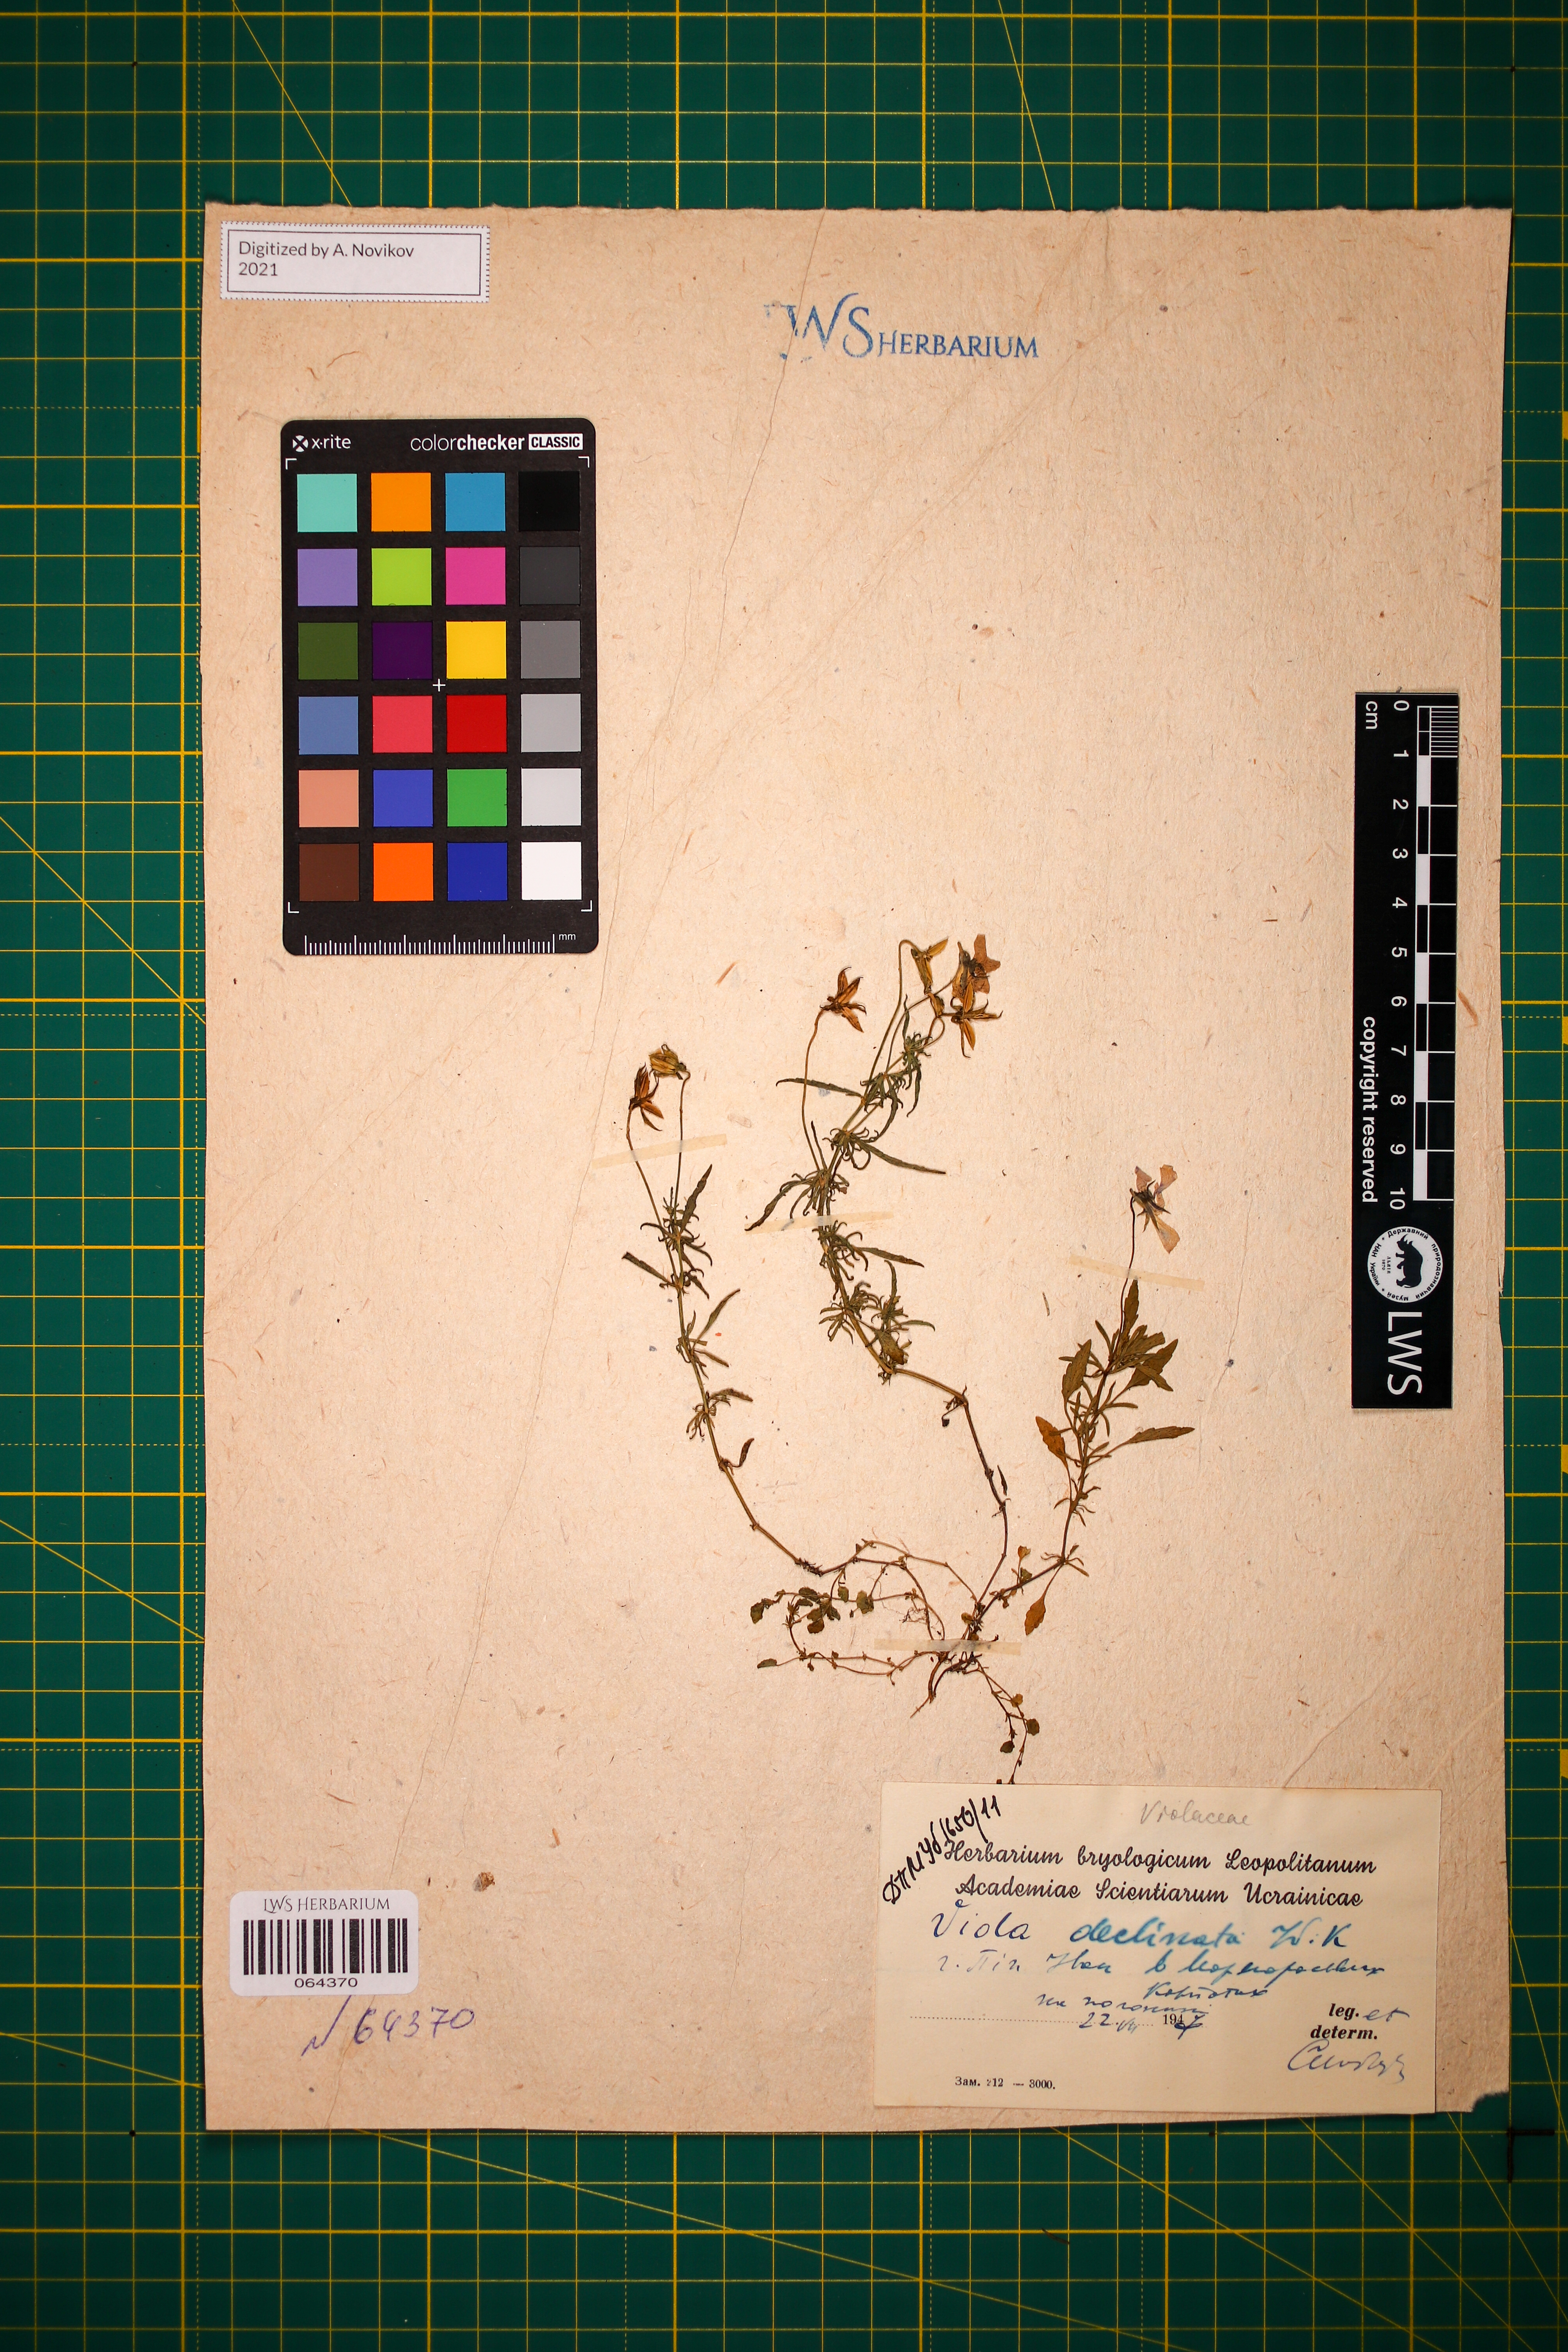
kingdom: Plantae
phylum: Tracheophyta
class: Magnoliopsida
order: Malpighiales
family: Violaceae
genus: Viola
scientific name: Viola declinata
